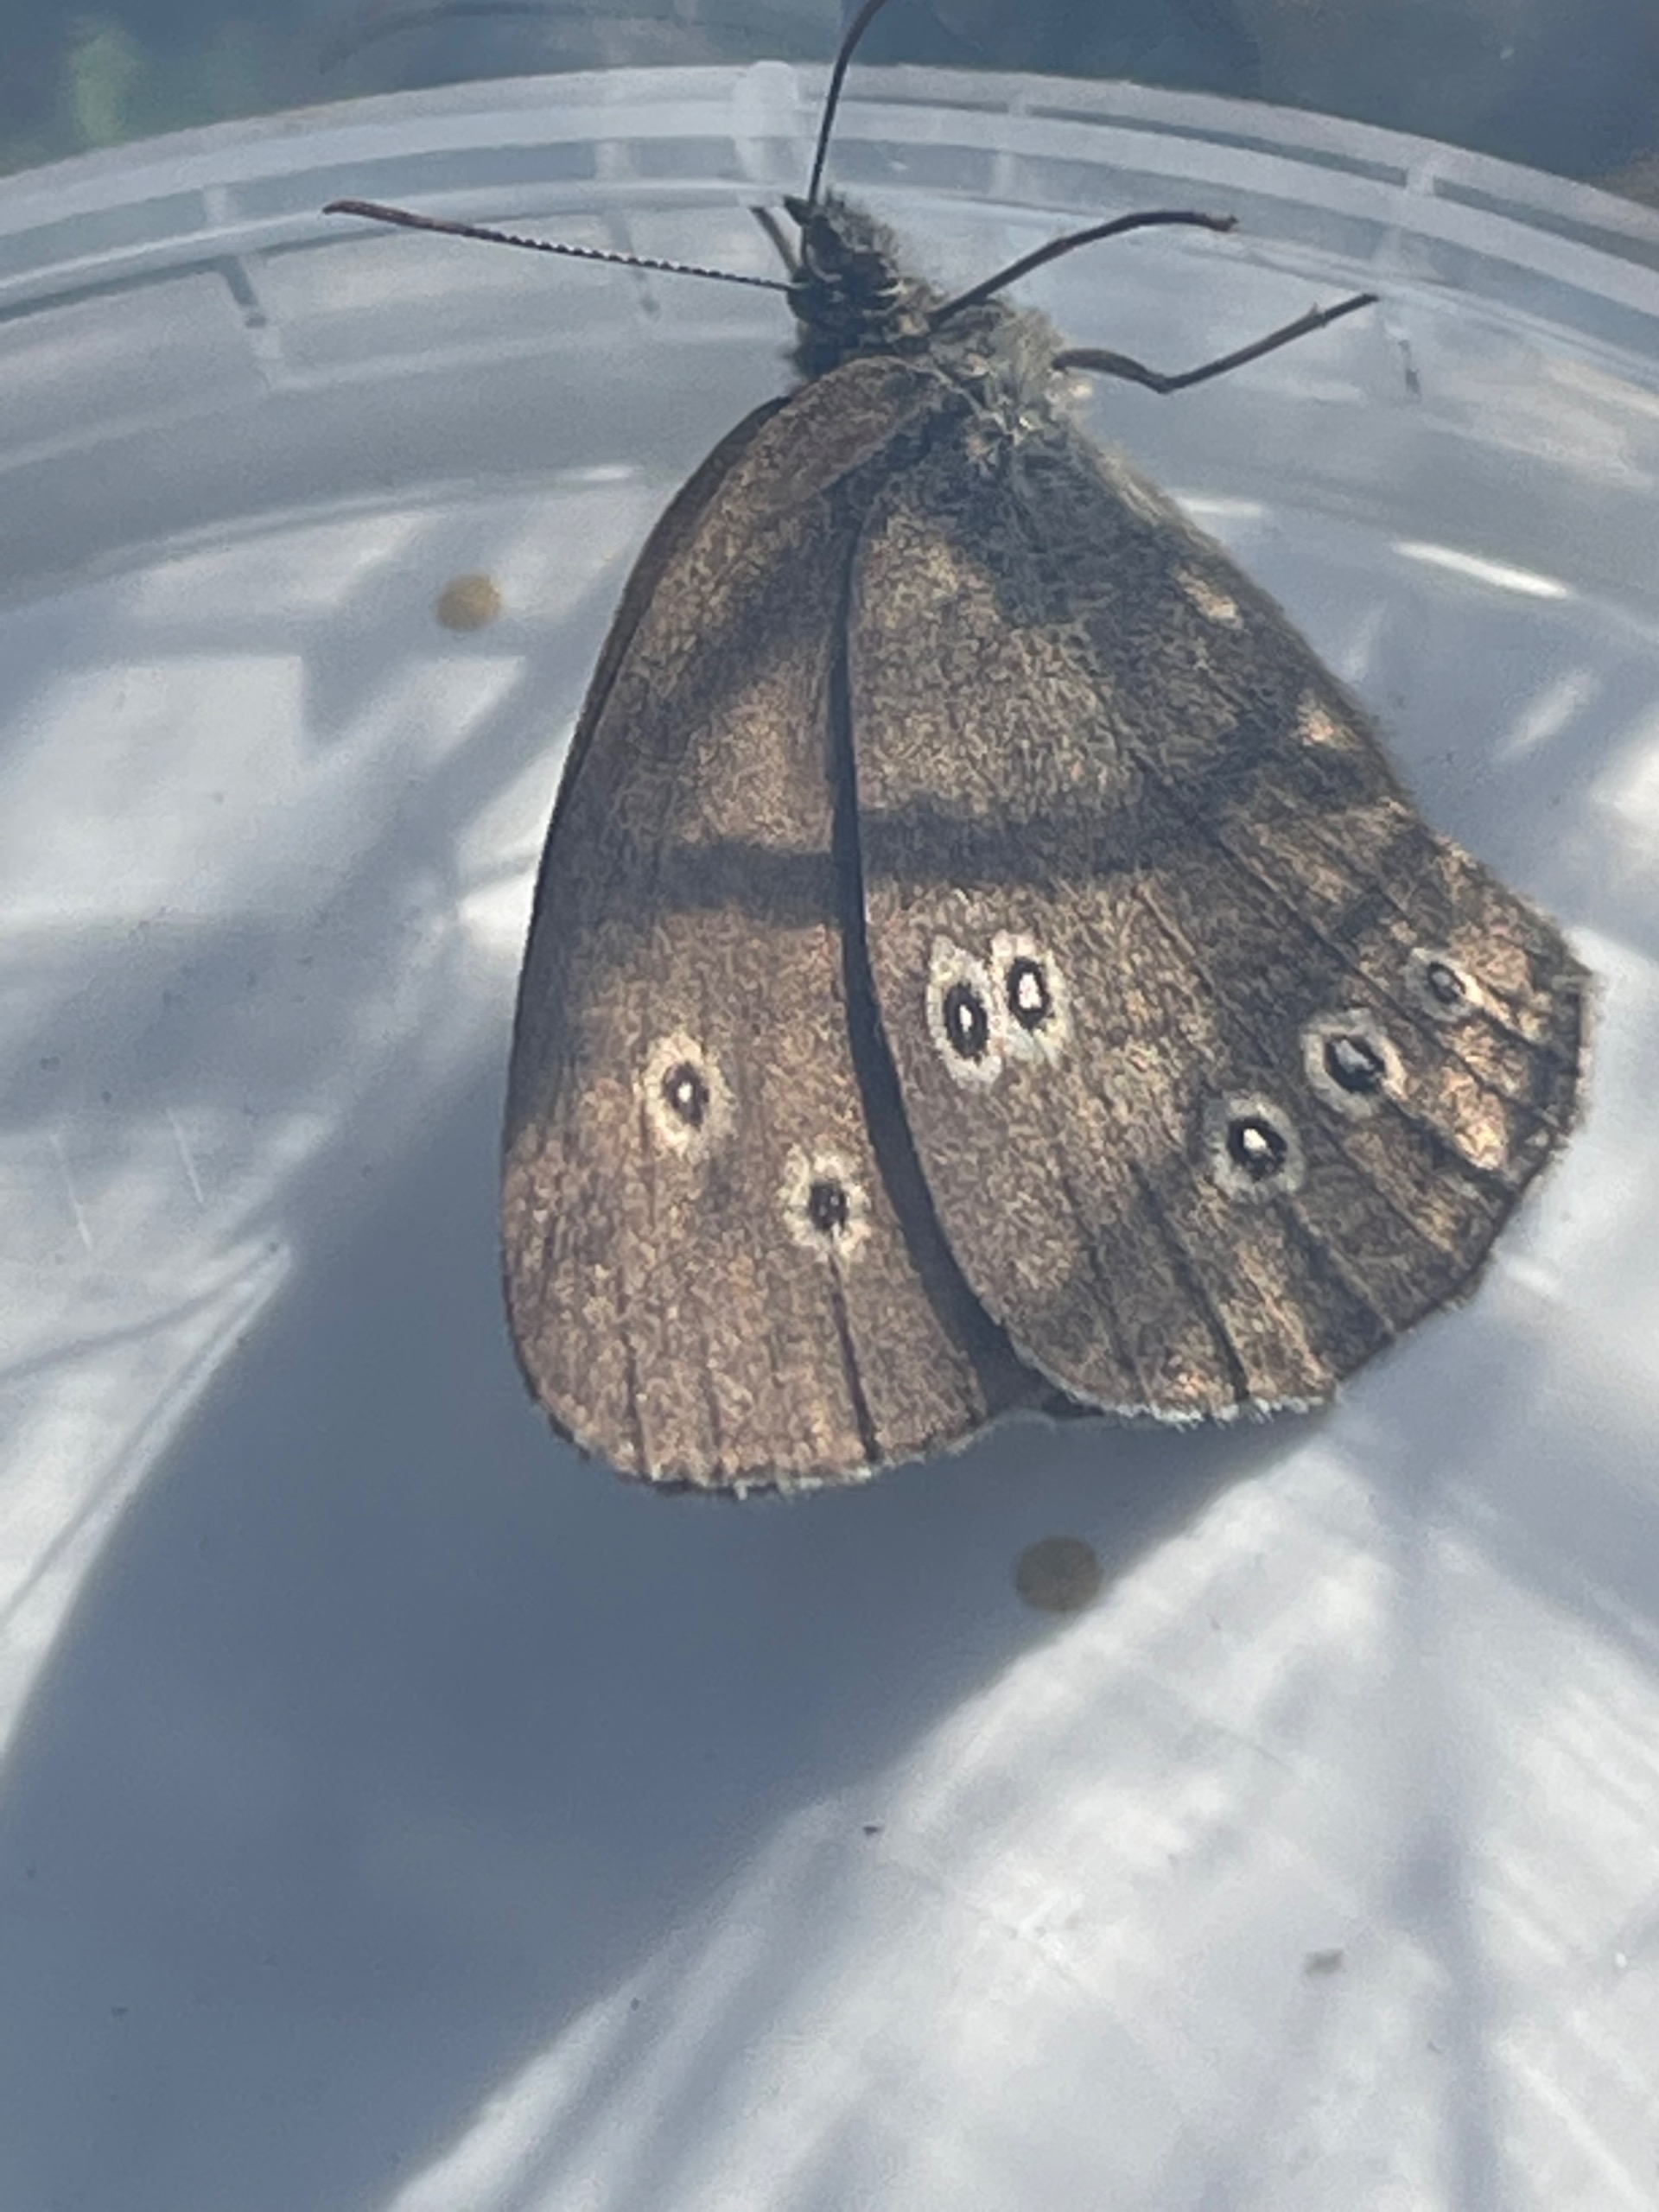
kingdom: Animalia
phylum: Arthropoda
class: Insecta
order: Lepidoptera
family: Nymphalidae
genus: Aphantopus
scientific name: Aphantopus hyperantus
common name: Engrandøje
